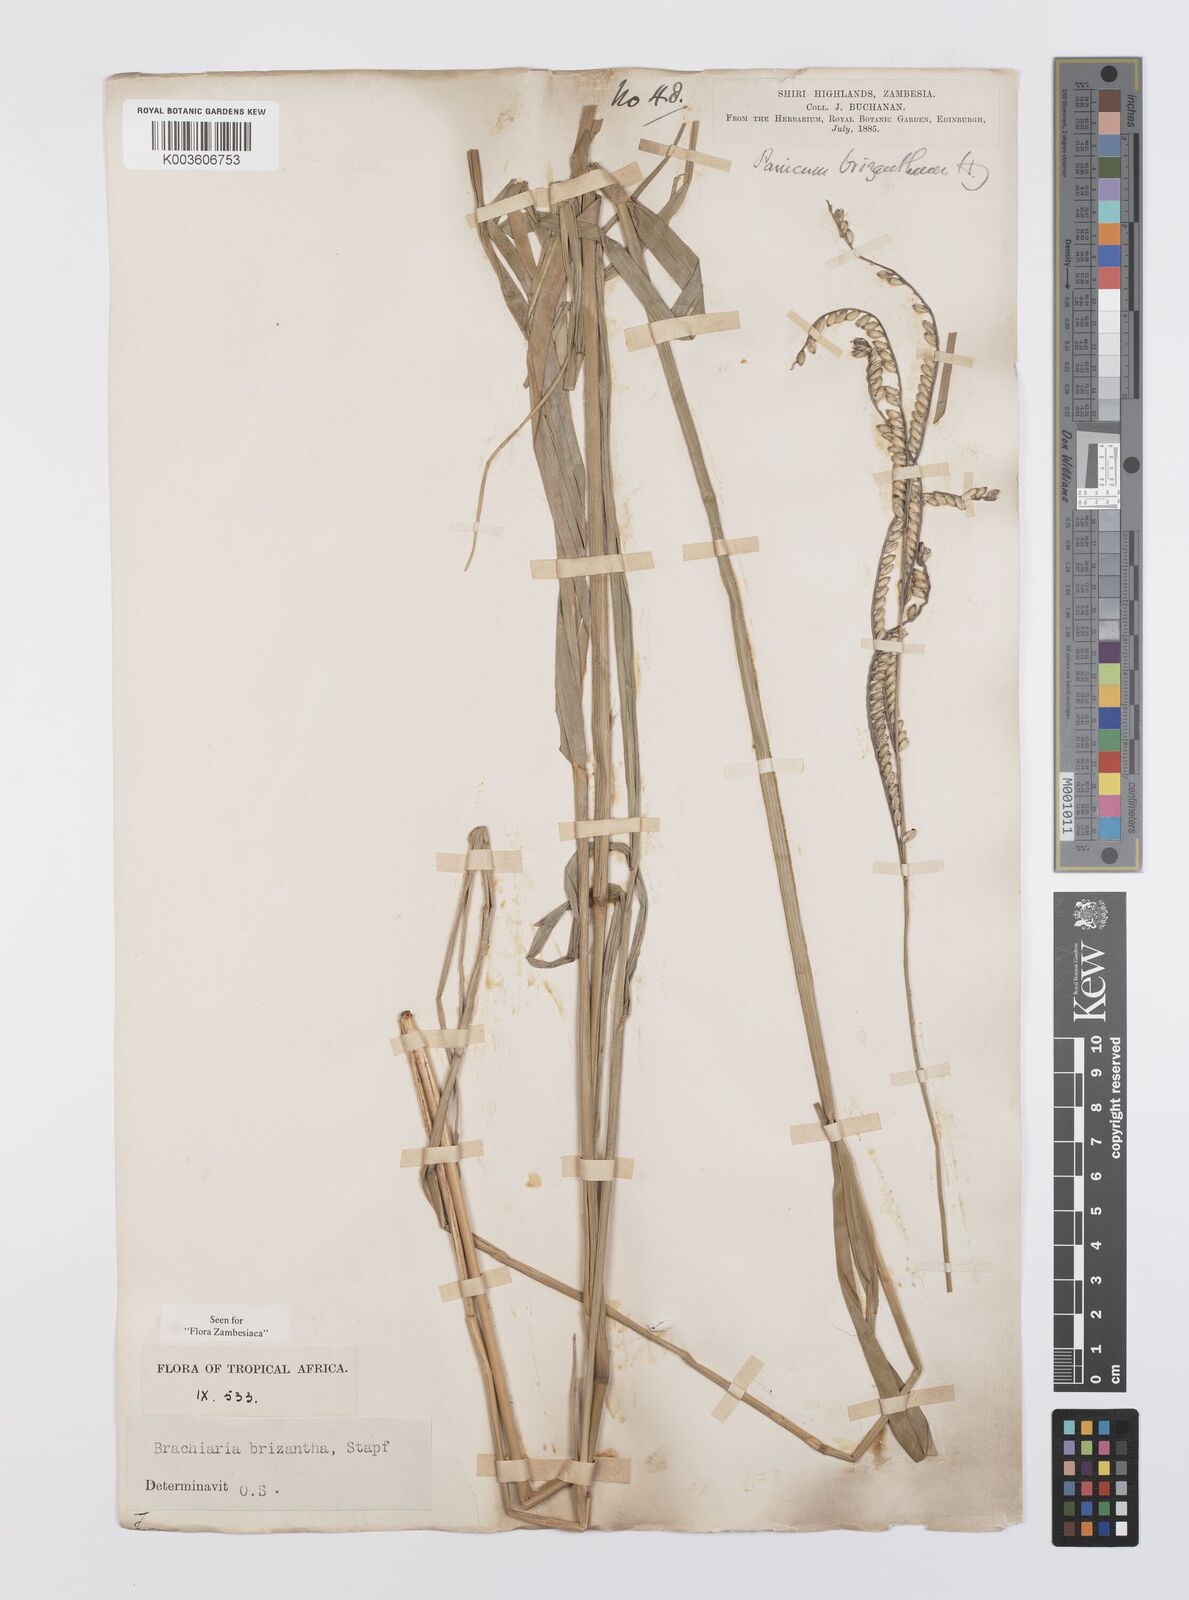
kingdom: Plantae
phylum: Tracheophyta
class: Liliopsida
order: Poales
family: Poaceae
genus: Urochloa
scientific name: Urochloa brizantha
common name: Palisade signalgrass
